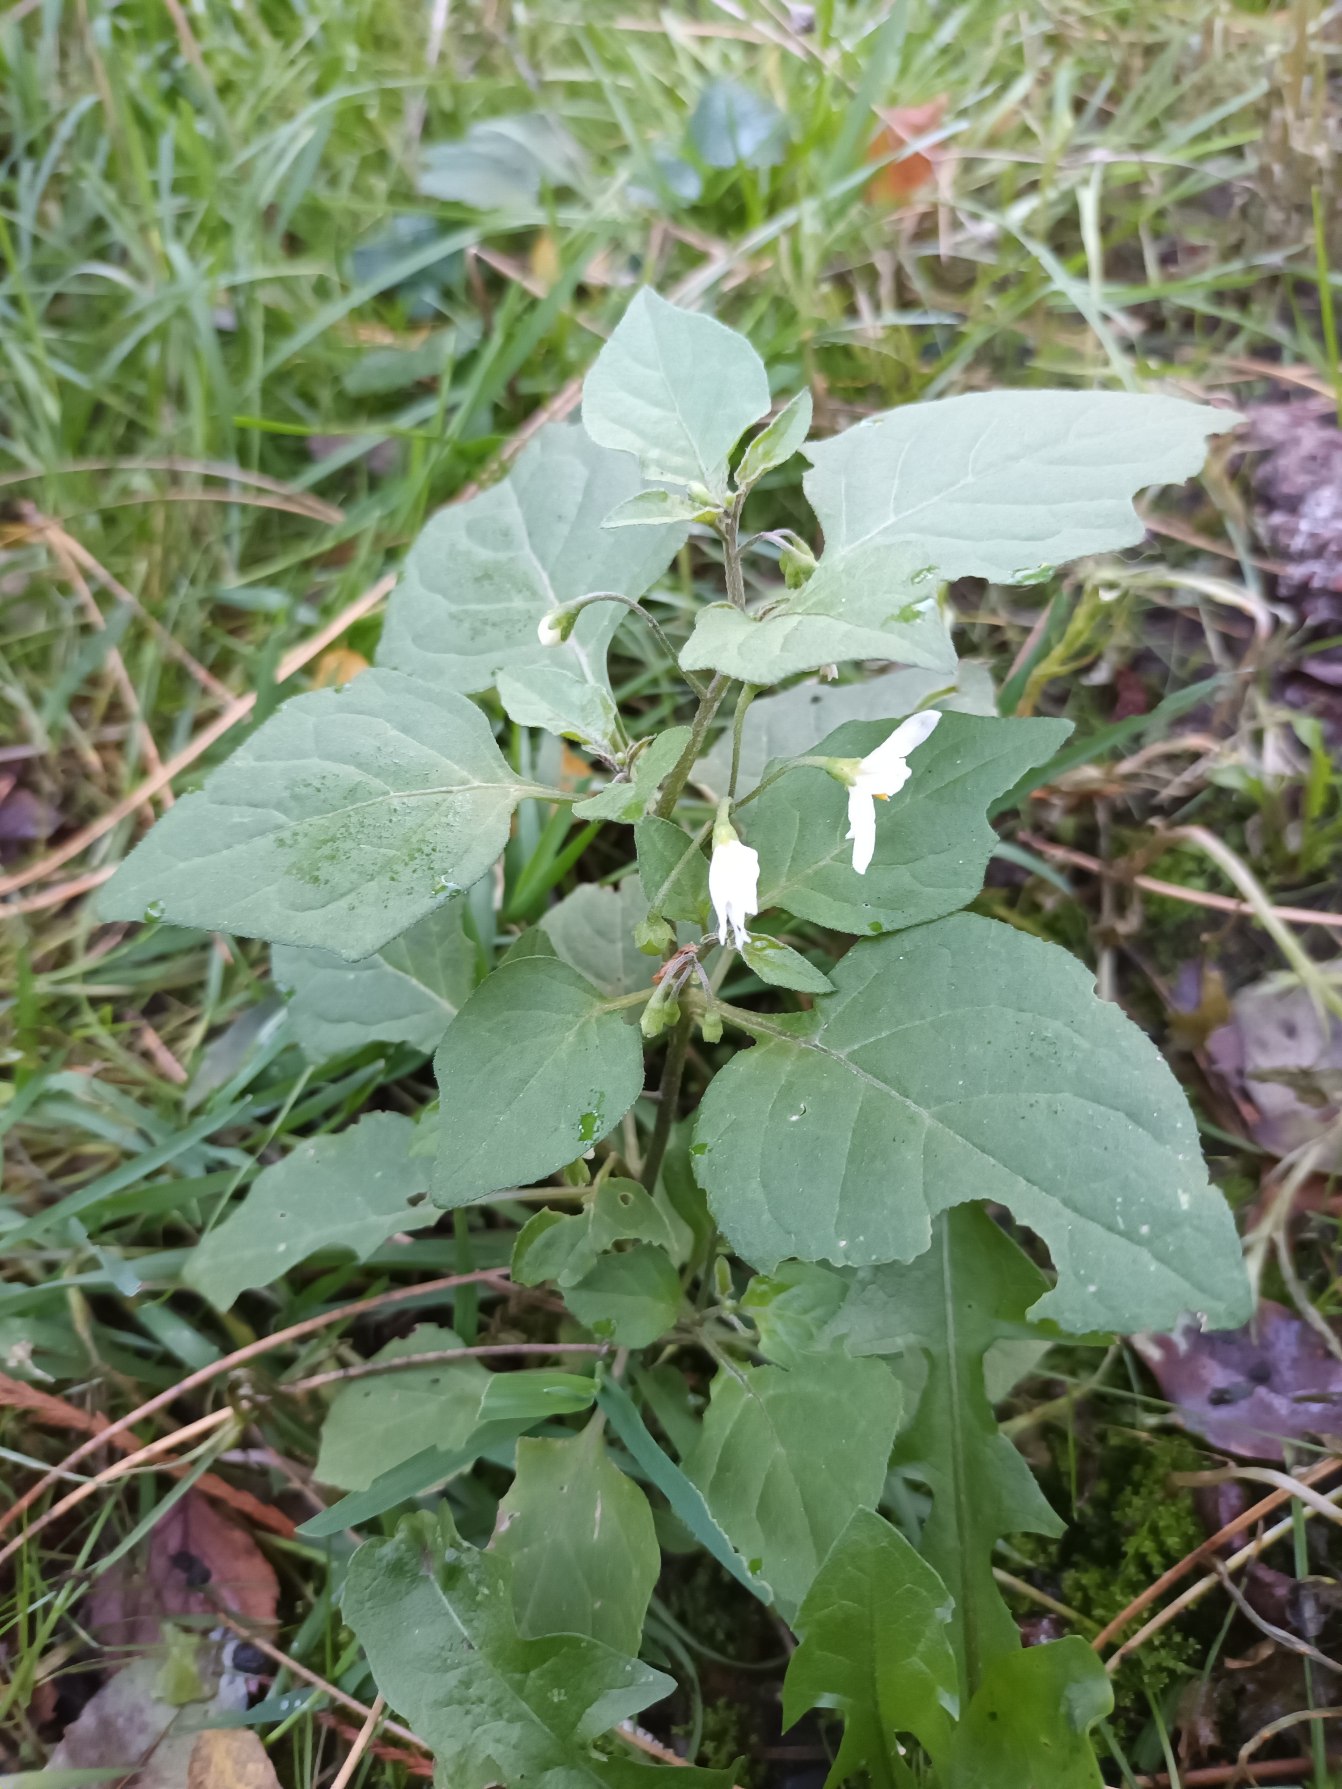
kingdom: Plantae
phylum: Tracheophyta
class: Magnoliopsida
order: Solanales
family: Solanaceae
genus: Solanum
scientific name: Solanum nigrum
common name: Sort natskygge
